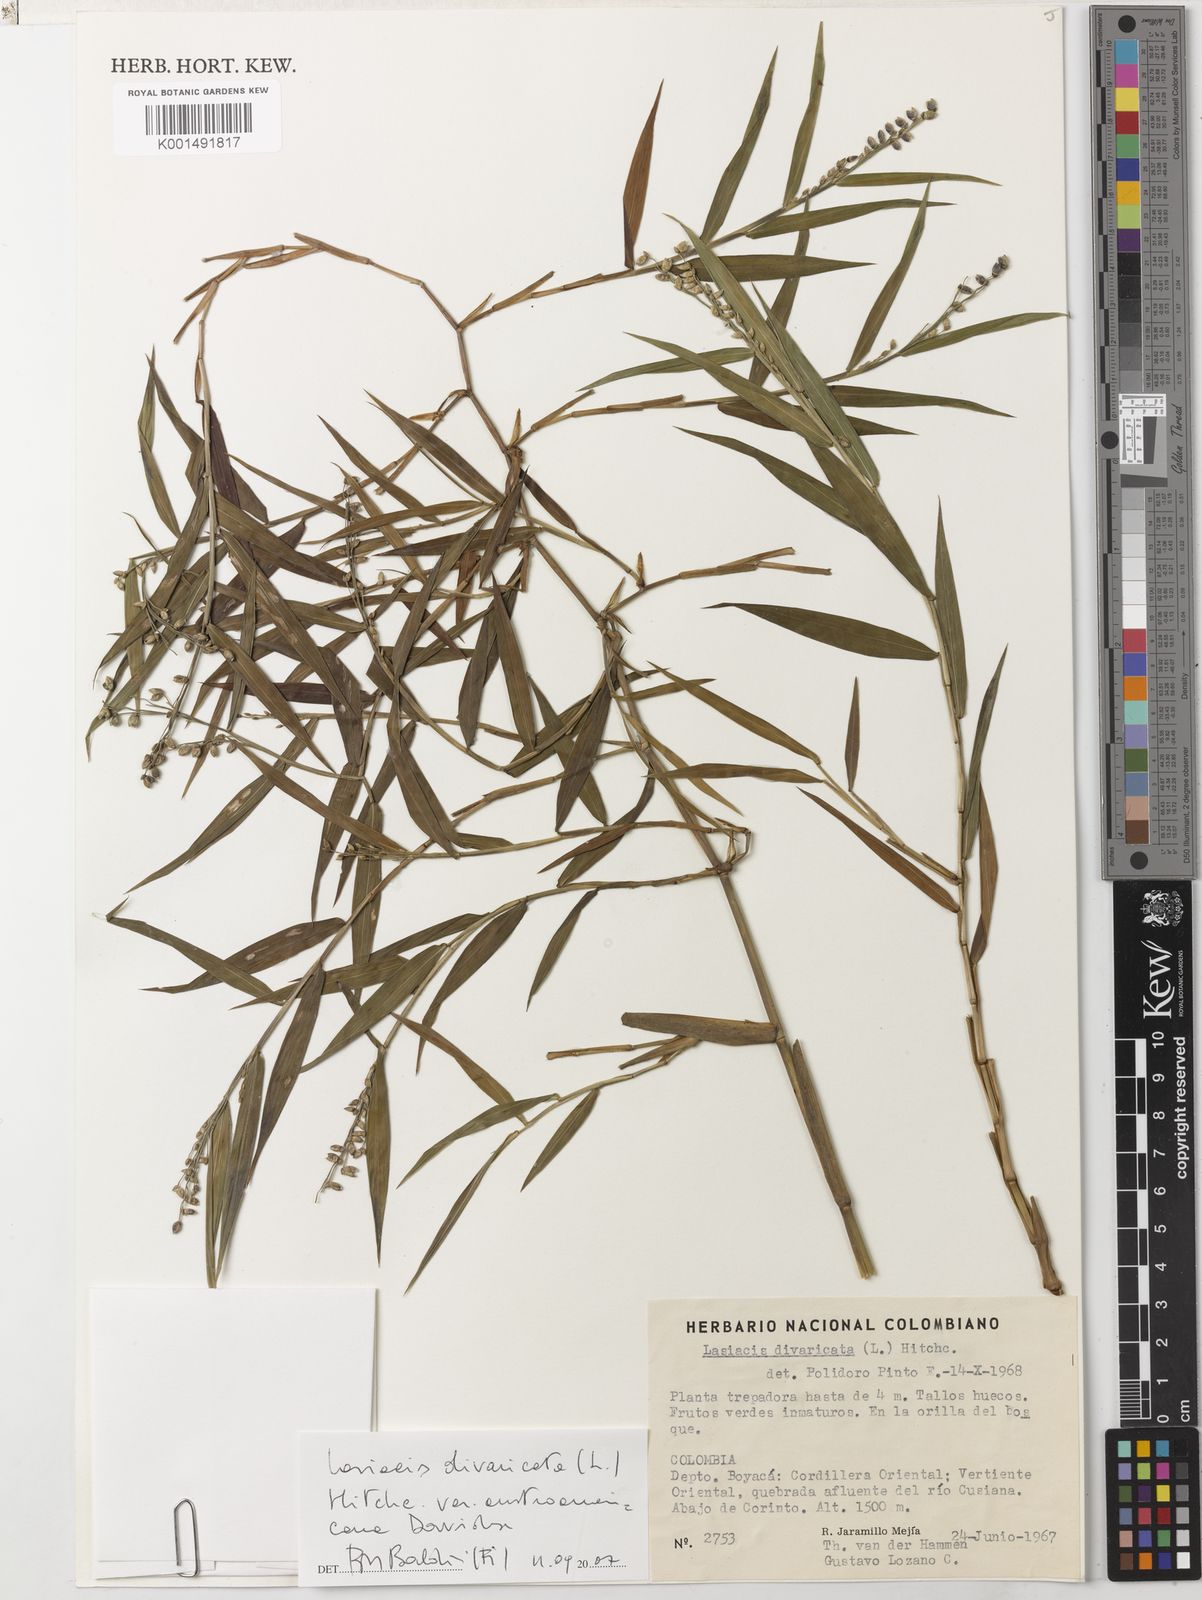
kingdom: Plantae
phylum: Tracheophyta
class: Liliopsida
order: Poales
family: Poaceae
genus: Lasiacis
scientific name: Lasiacis divaricata
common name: Smallcane
